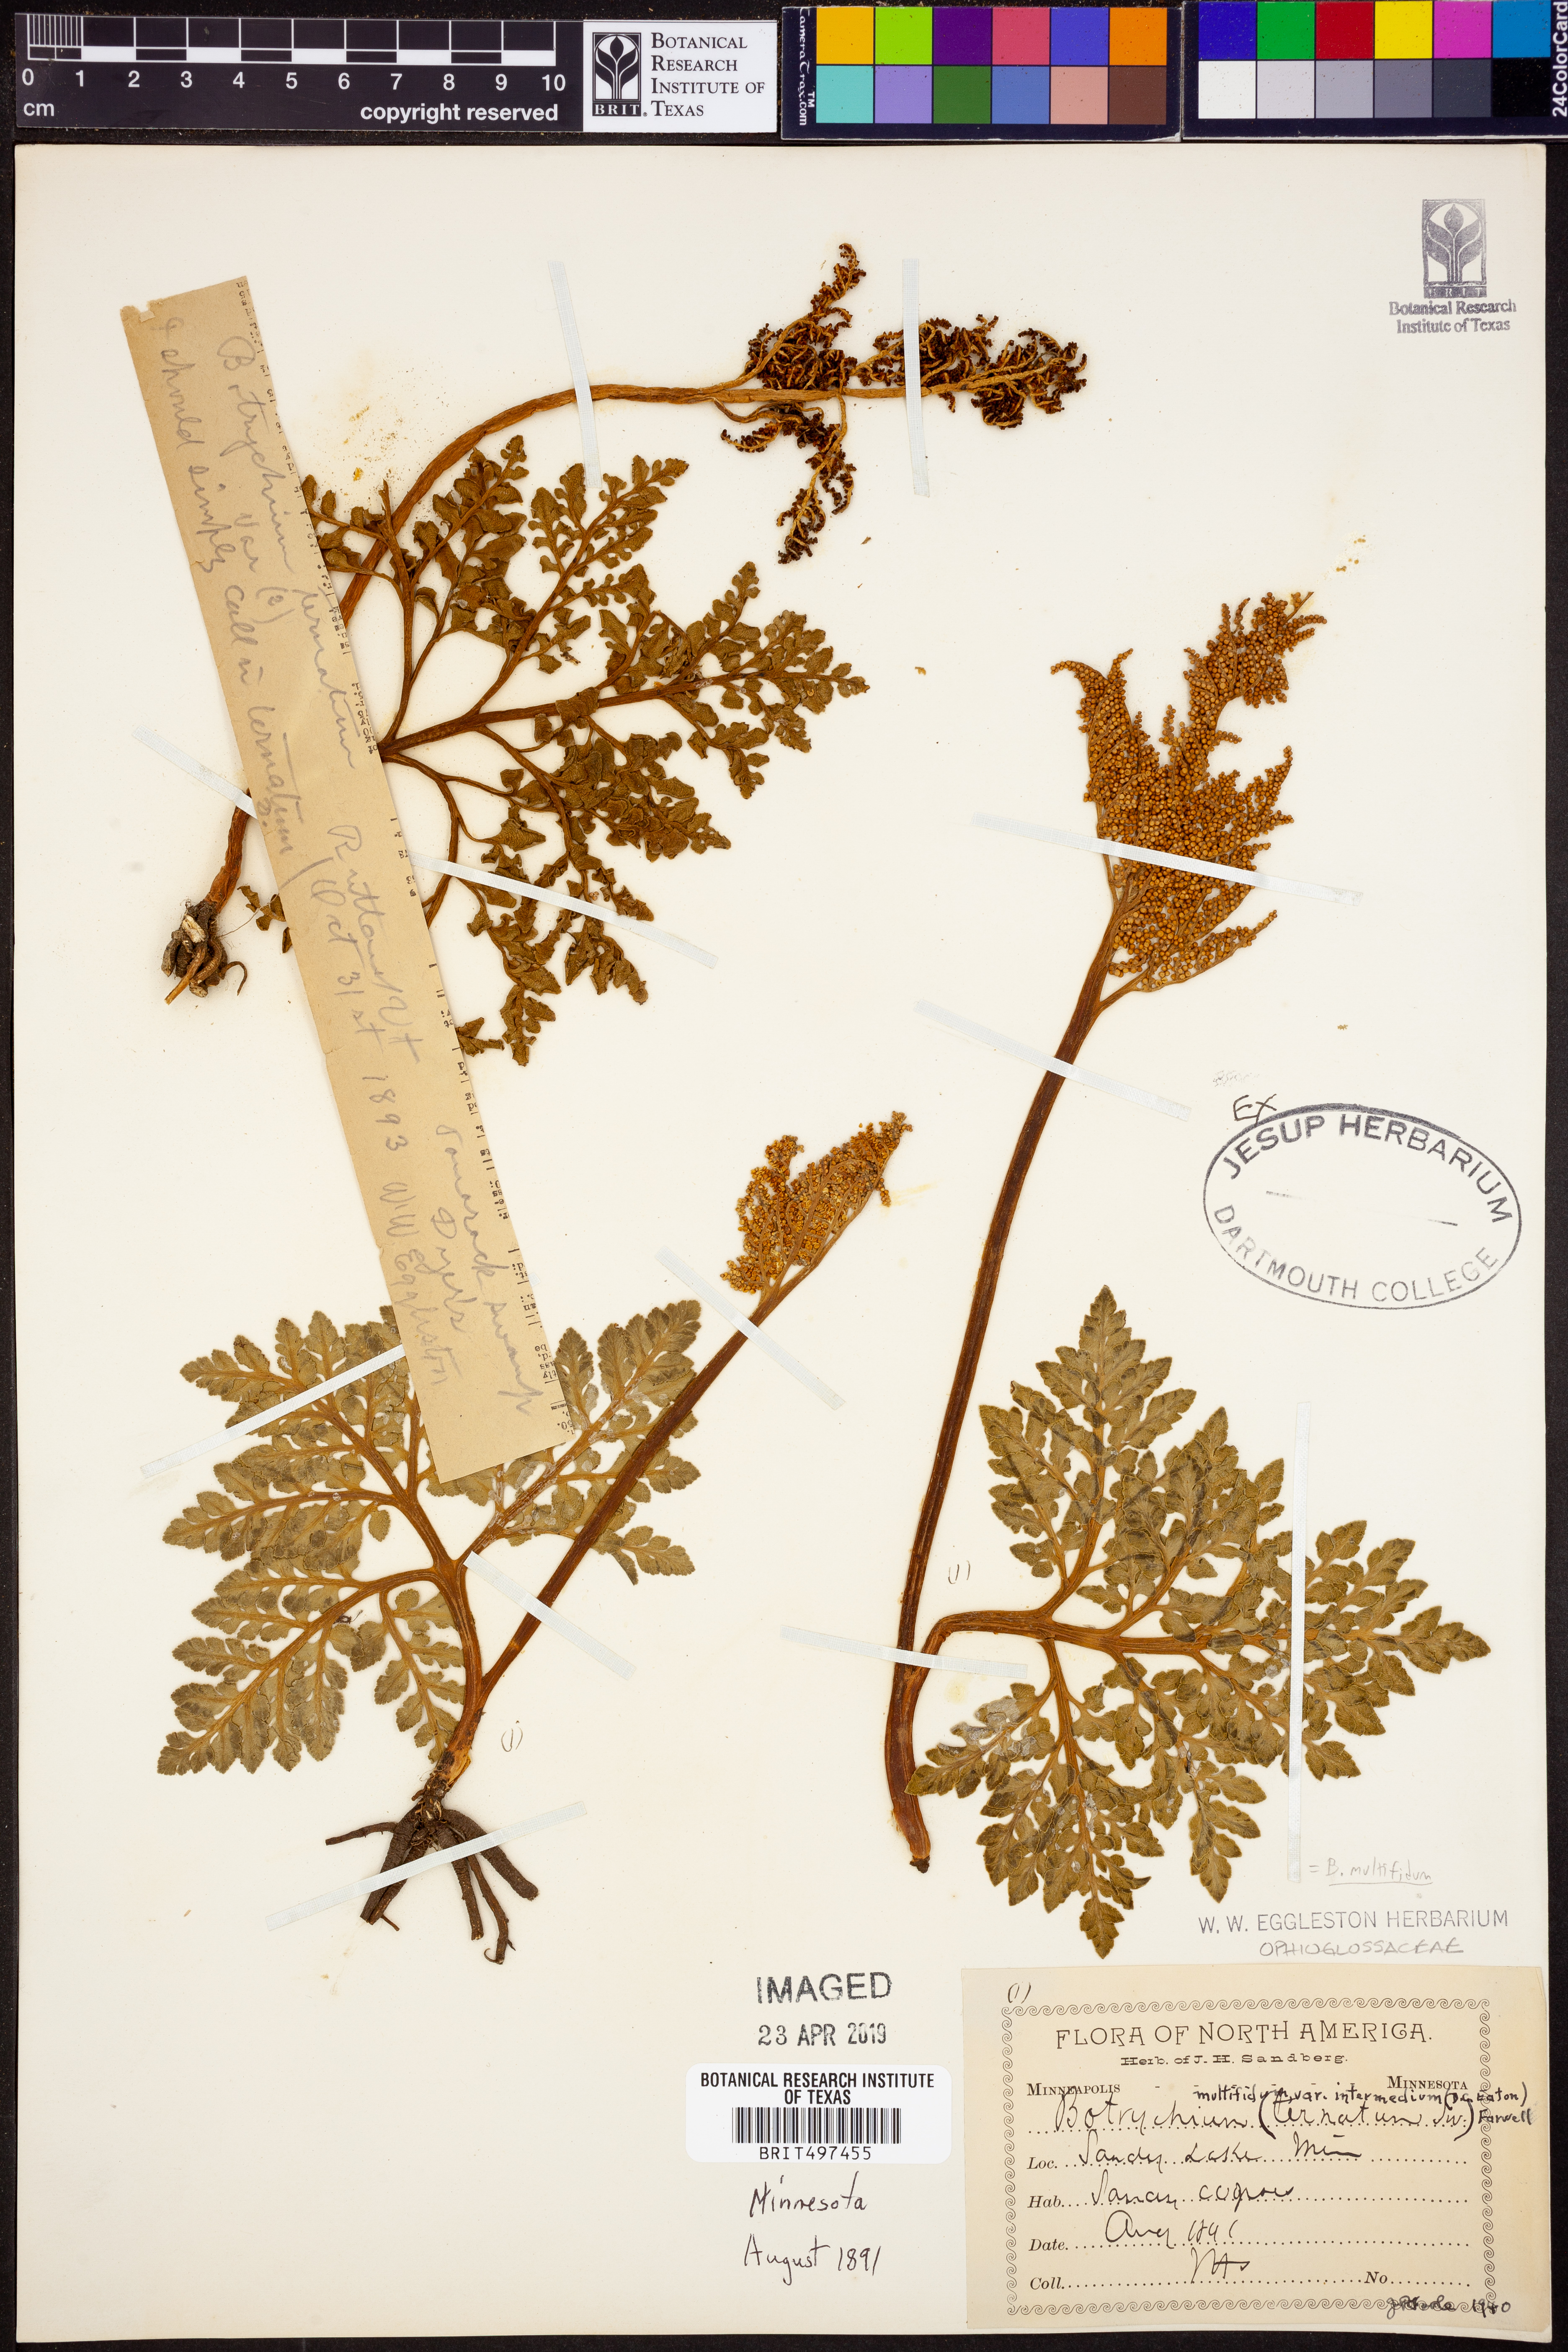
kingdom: Plantae
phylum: Tracheophyta
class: Polypodiopsida
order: Ophioglossales
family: Ophioglossaceae
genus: Sceptridium
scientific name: Sceptridium multifidum
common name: Leathery grape fern
